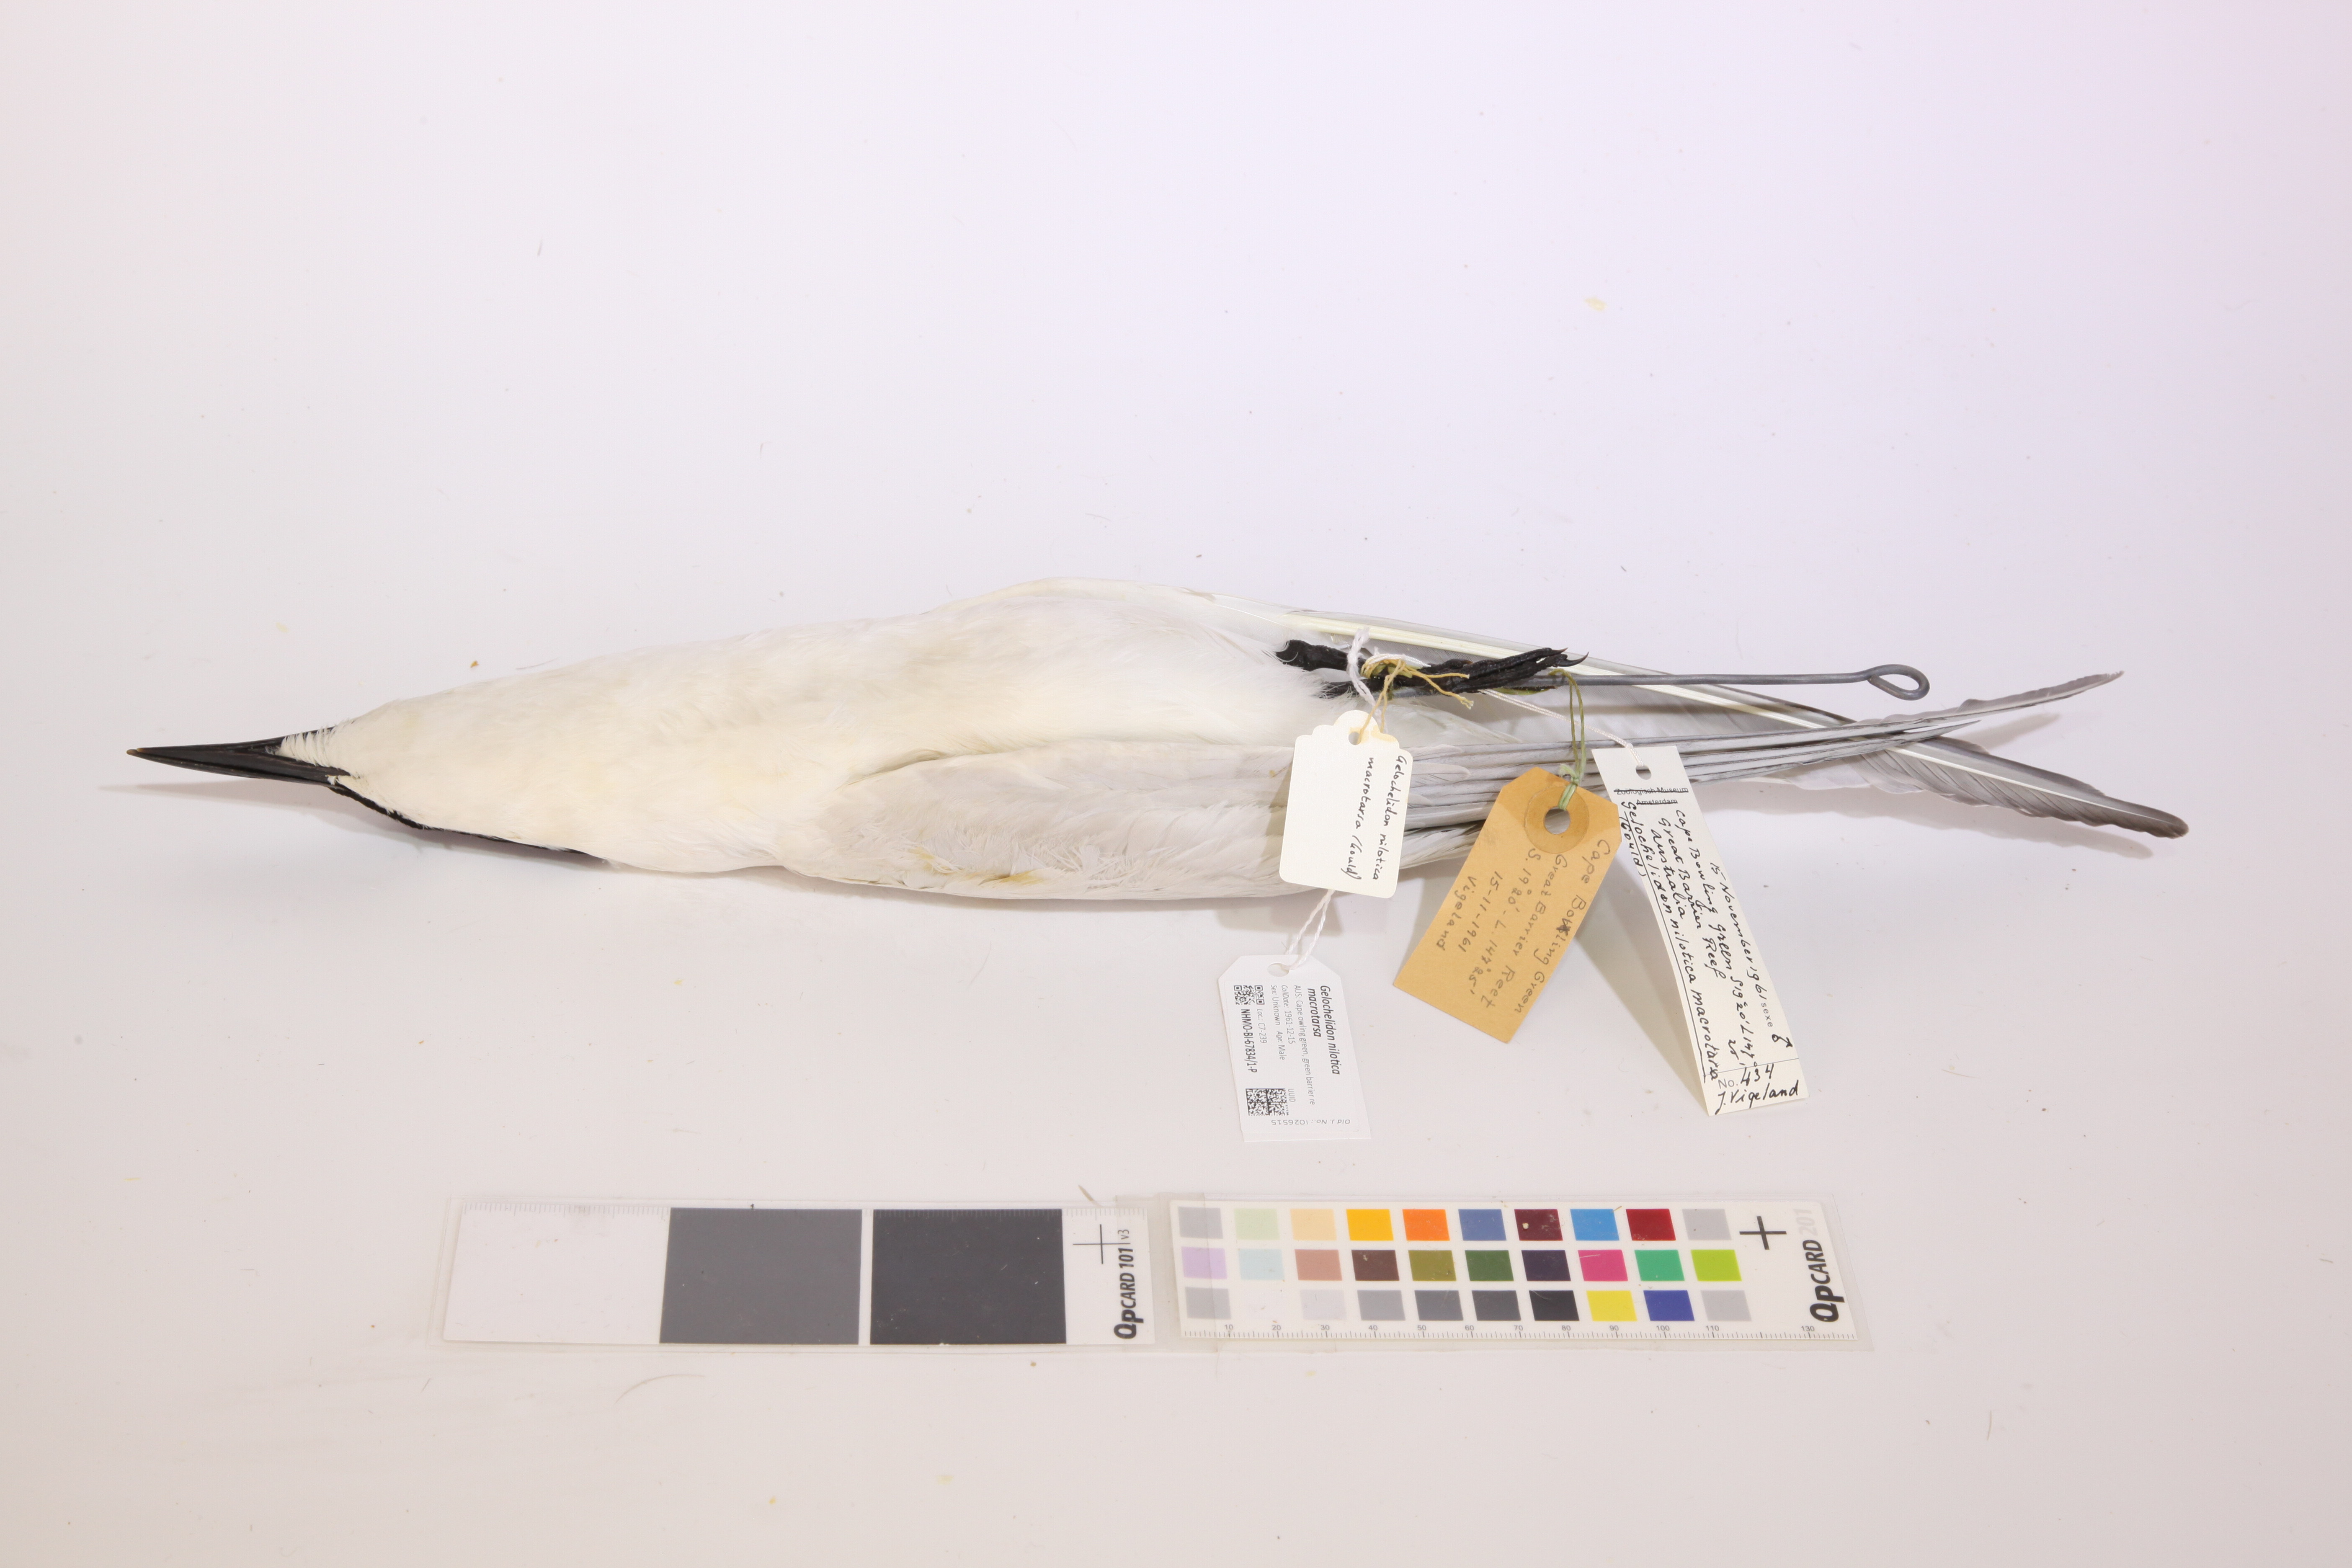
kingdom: Animalia
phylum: Chordata
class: Aves
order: Charadriiformes
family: Laridae
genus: Gelochelidon
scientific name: Gelochelidon macrotarsa
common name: Australian tern
